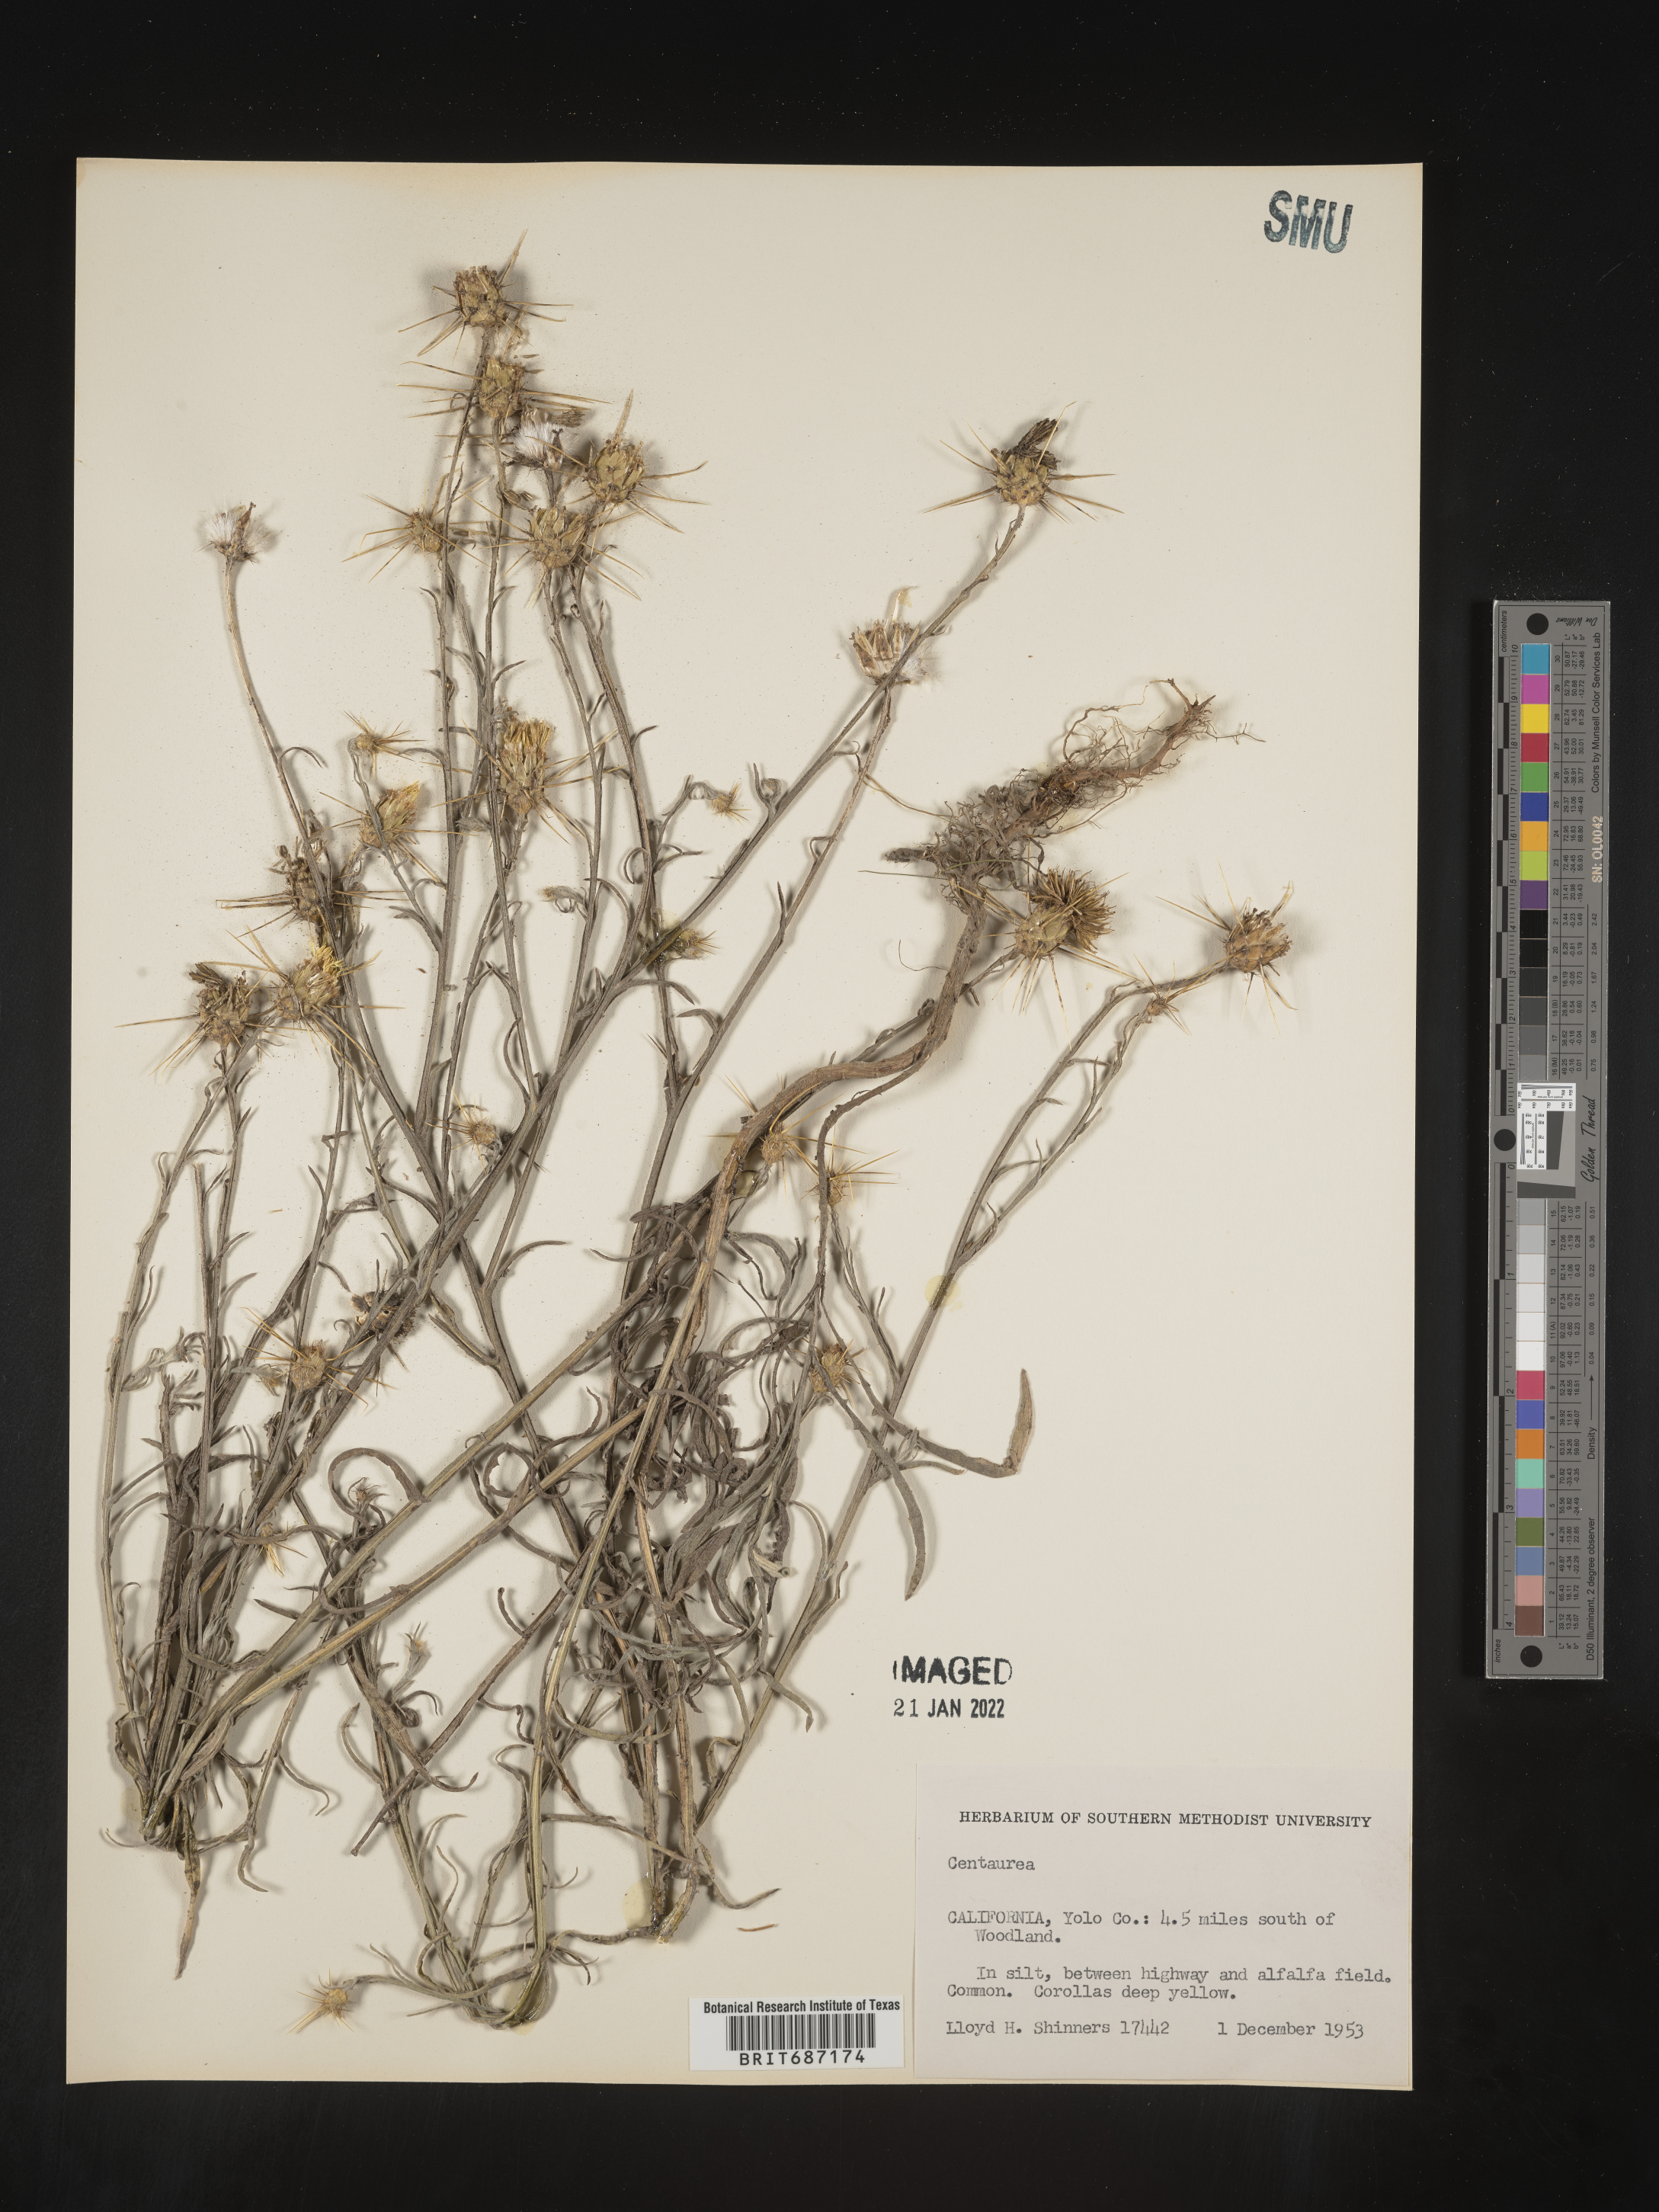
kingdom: Plantae
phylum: Tracheophyta
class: Magnoliopsida
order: Asterales
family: Asteraceae
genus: Centaurea
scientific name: Centaurea
